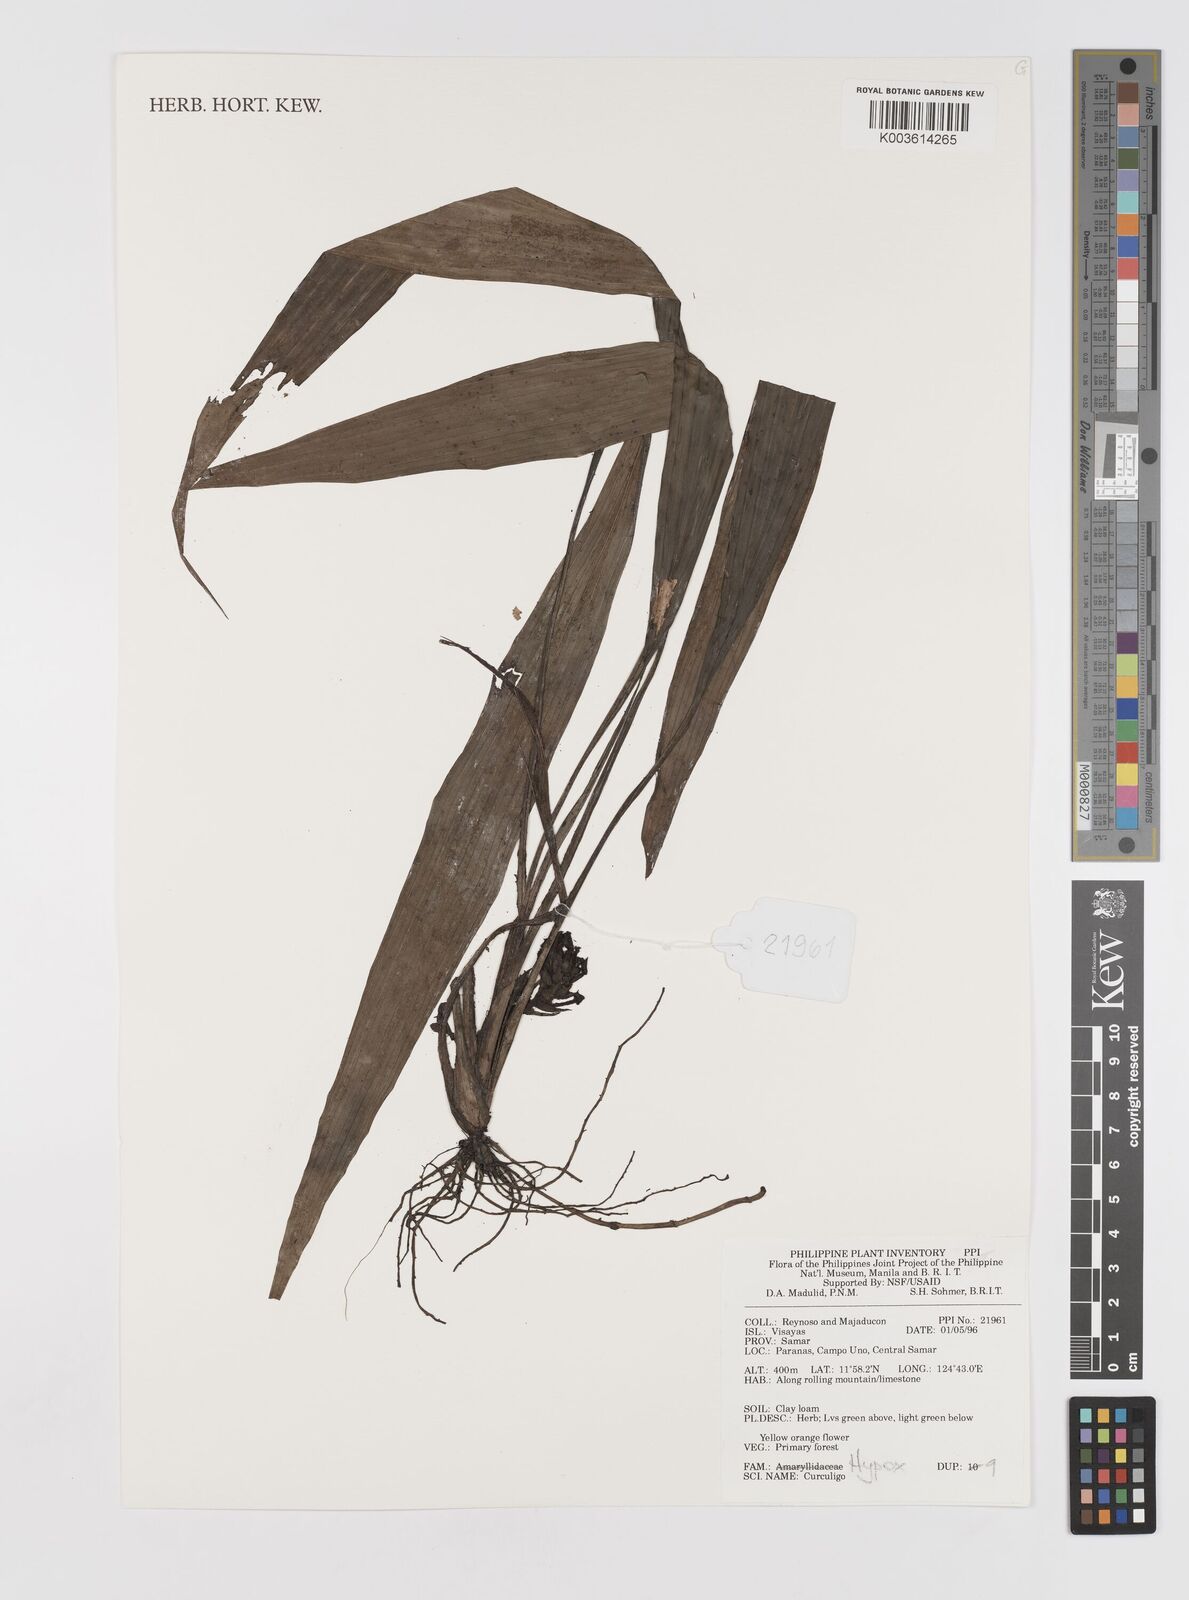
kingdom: Plantae
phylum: Tracheophyta
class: Liliopsida
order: Asparagales
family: Hypoxidaceae
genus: Curculigo
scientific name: Curculigo
